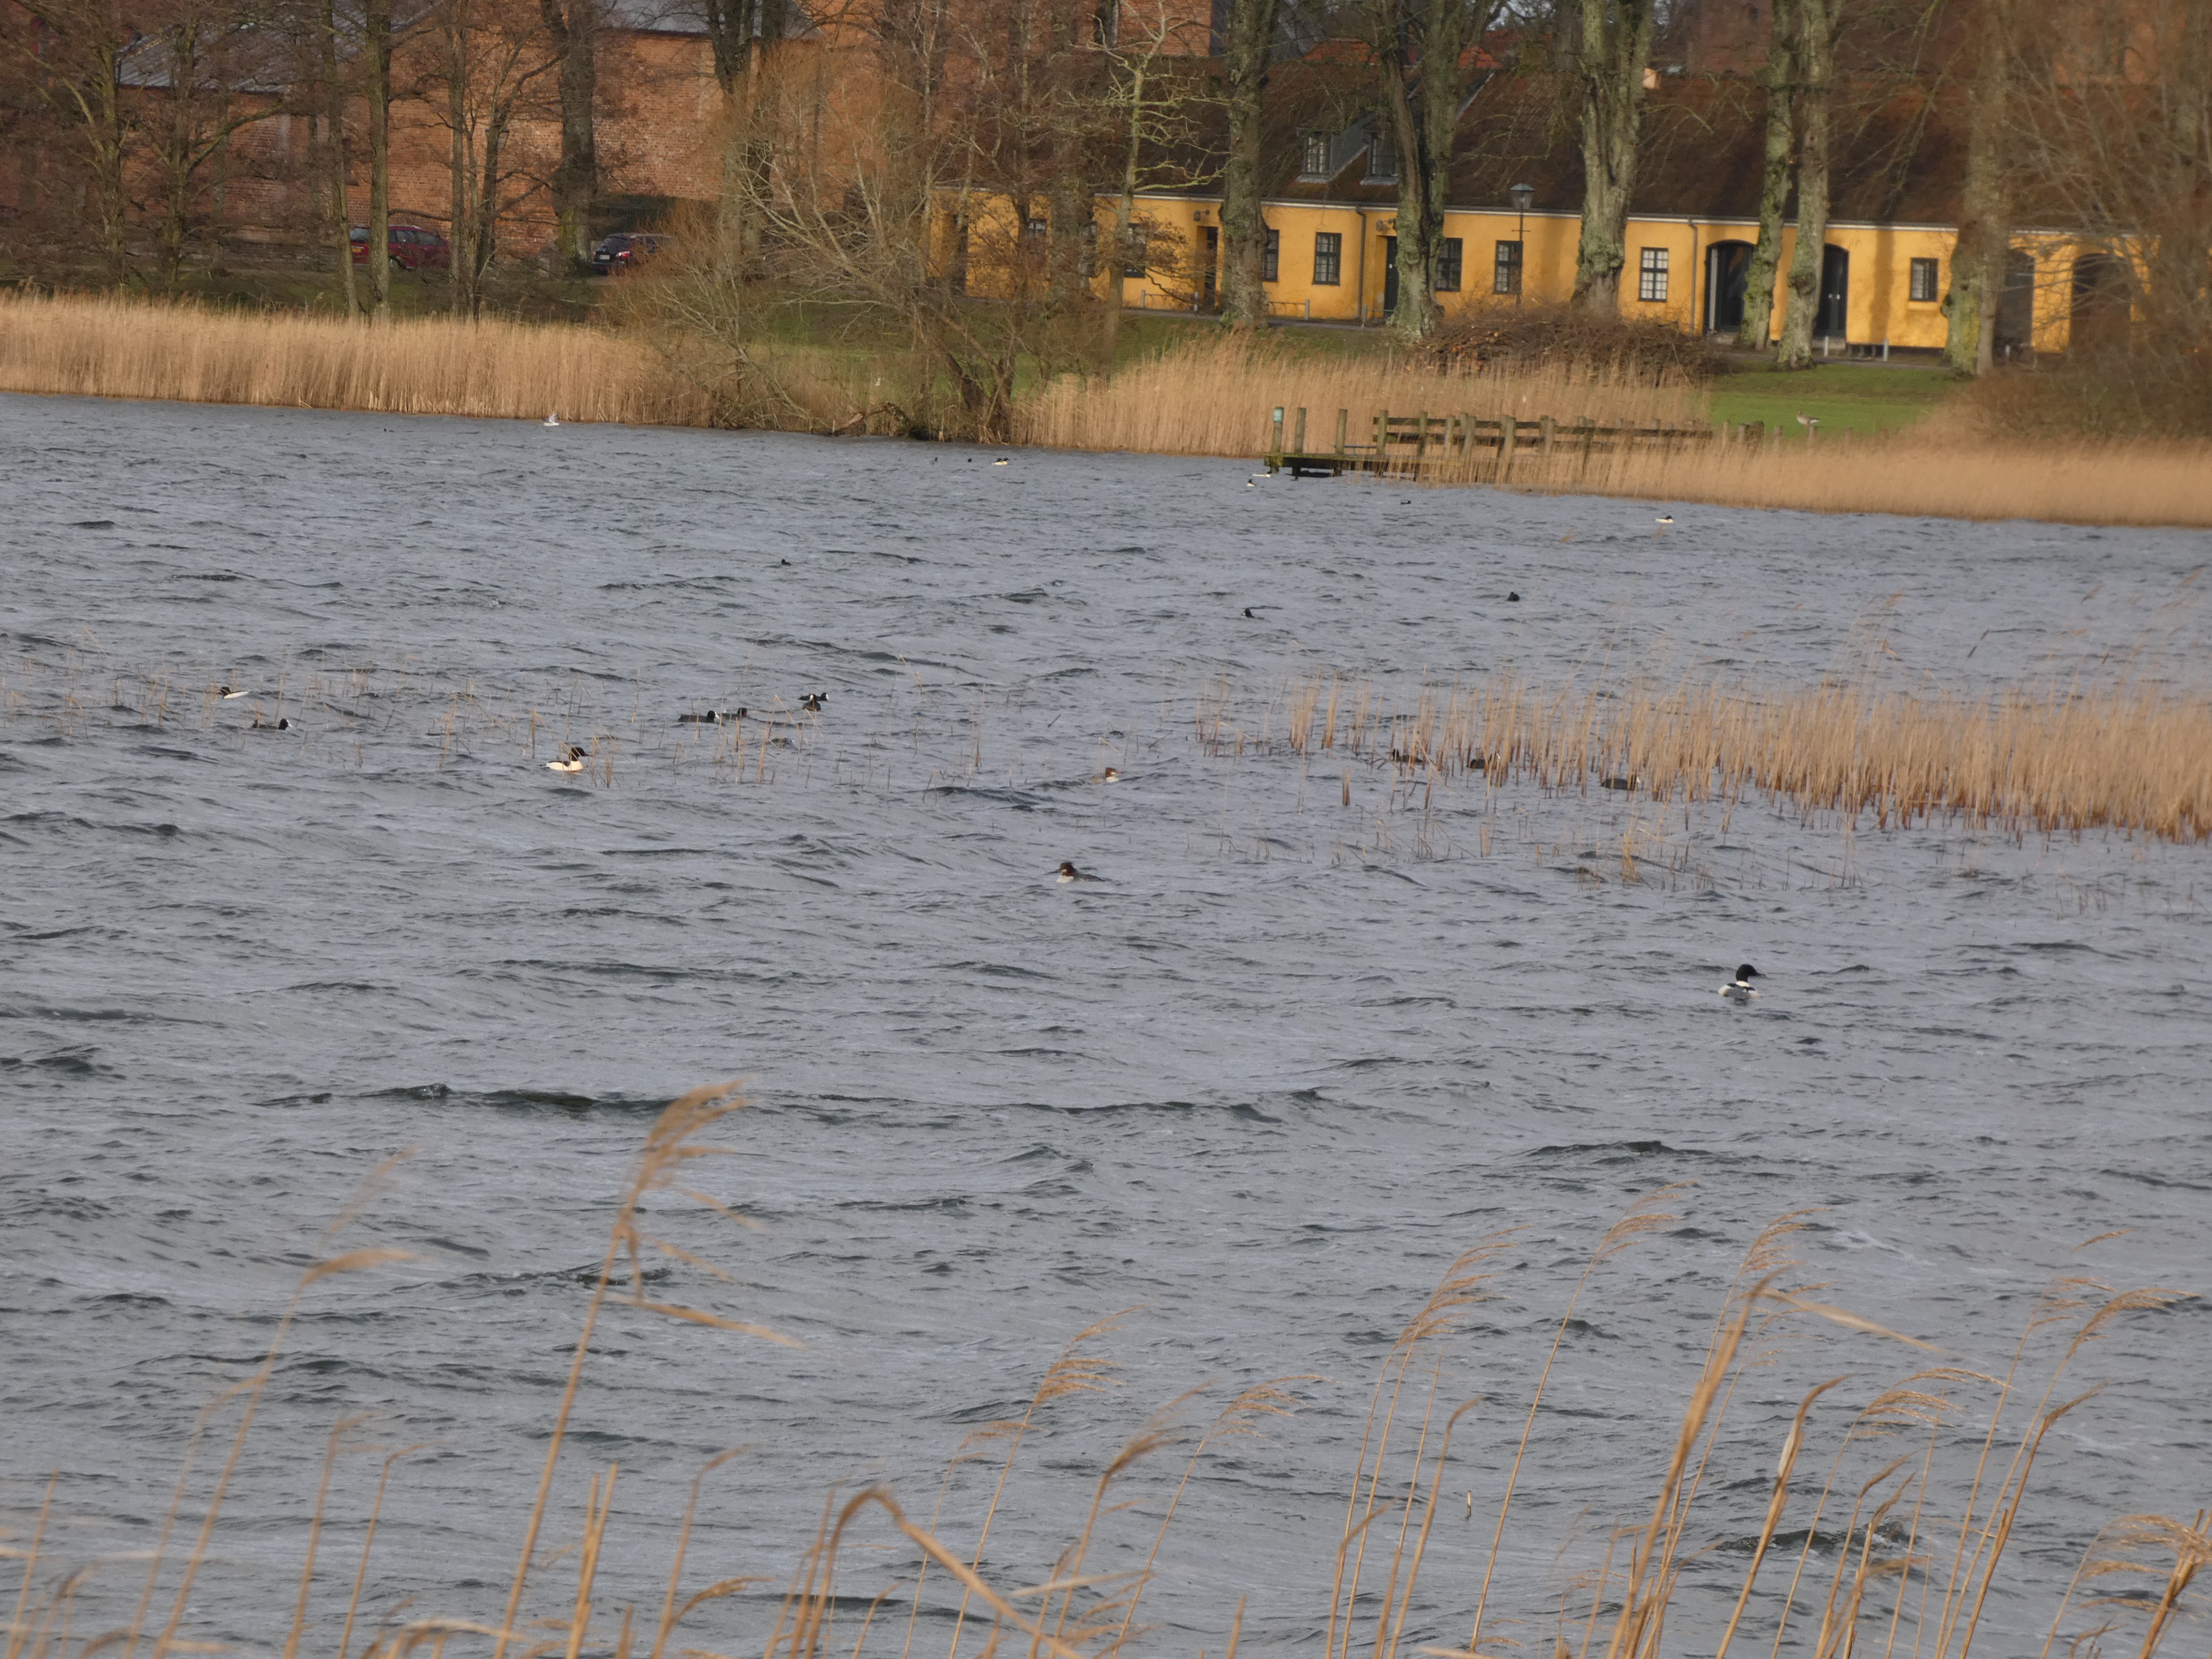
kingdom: Animalia
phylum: Chordata
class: Aves
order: Gruiformes
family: Rallidae
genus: Fulica
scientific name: Fulica atra
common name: Blishøne
